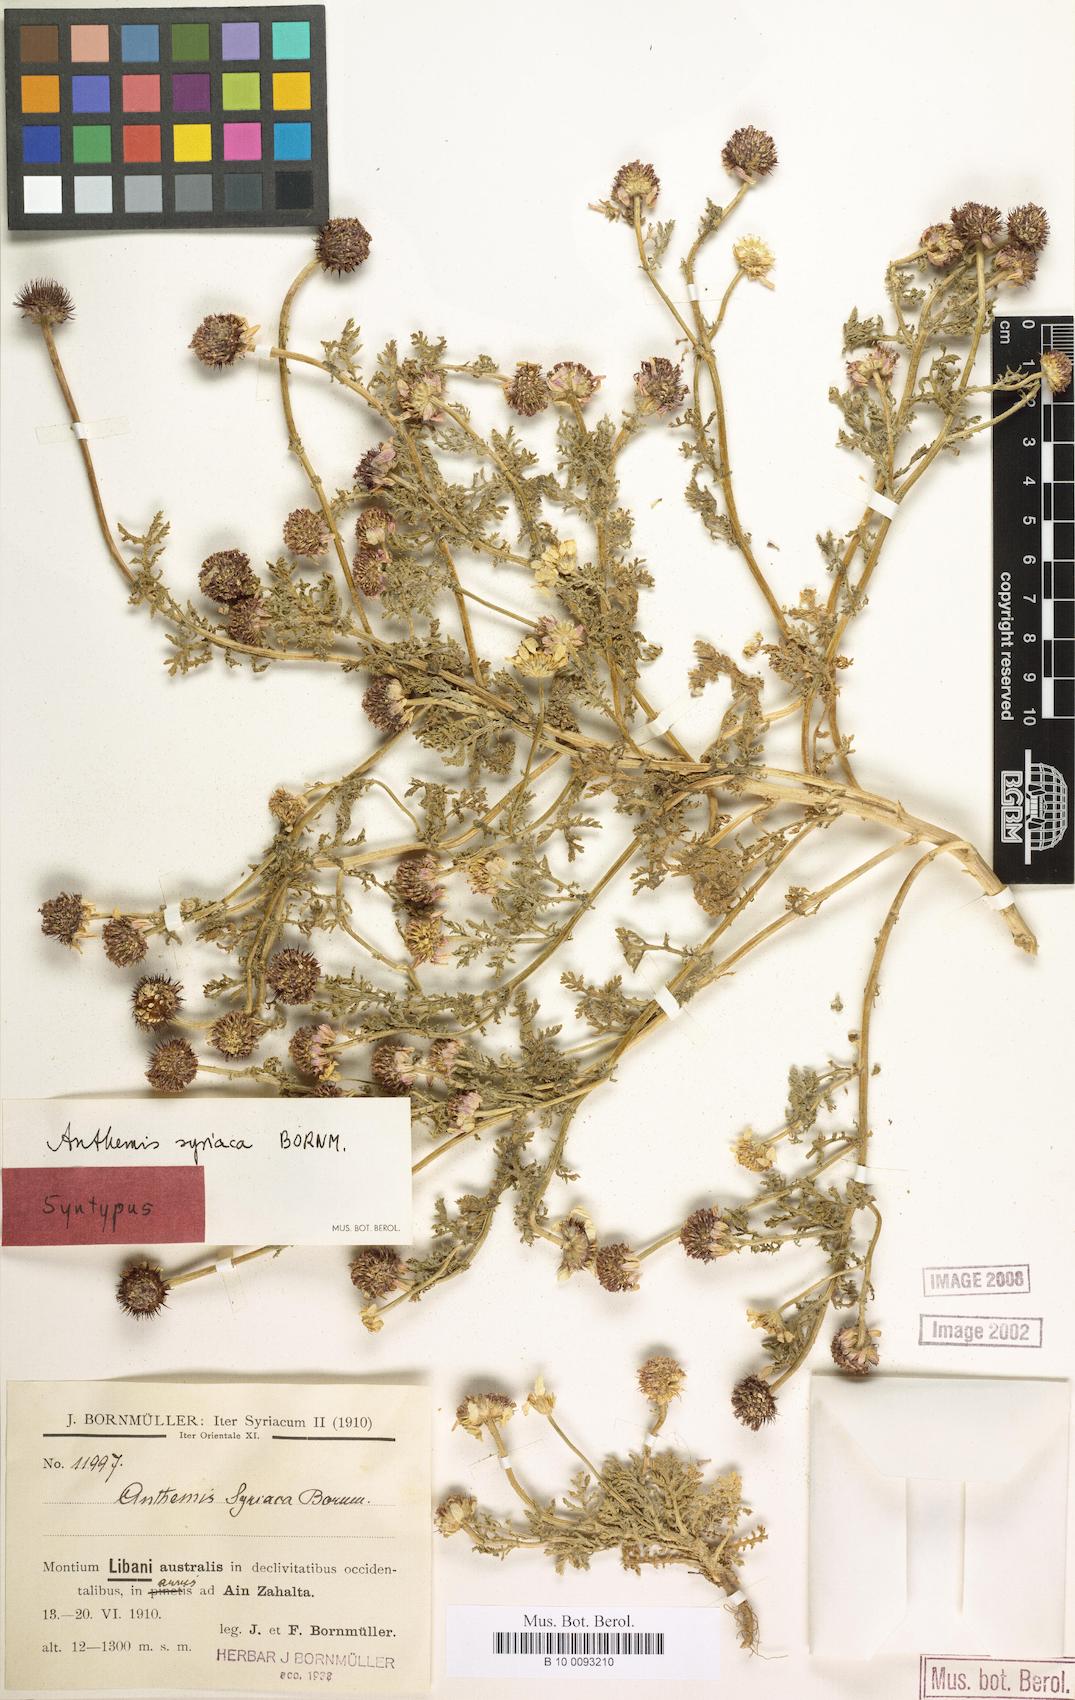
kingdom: Plantae
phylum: Tracheophyta
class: Magnoliopsida
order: Asterales
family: Asteraceae
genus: Cota
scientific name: Cota palaestina
